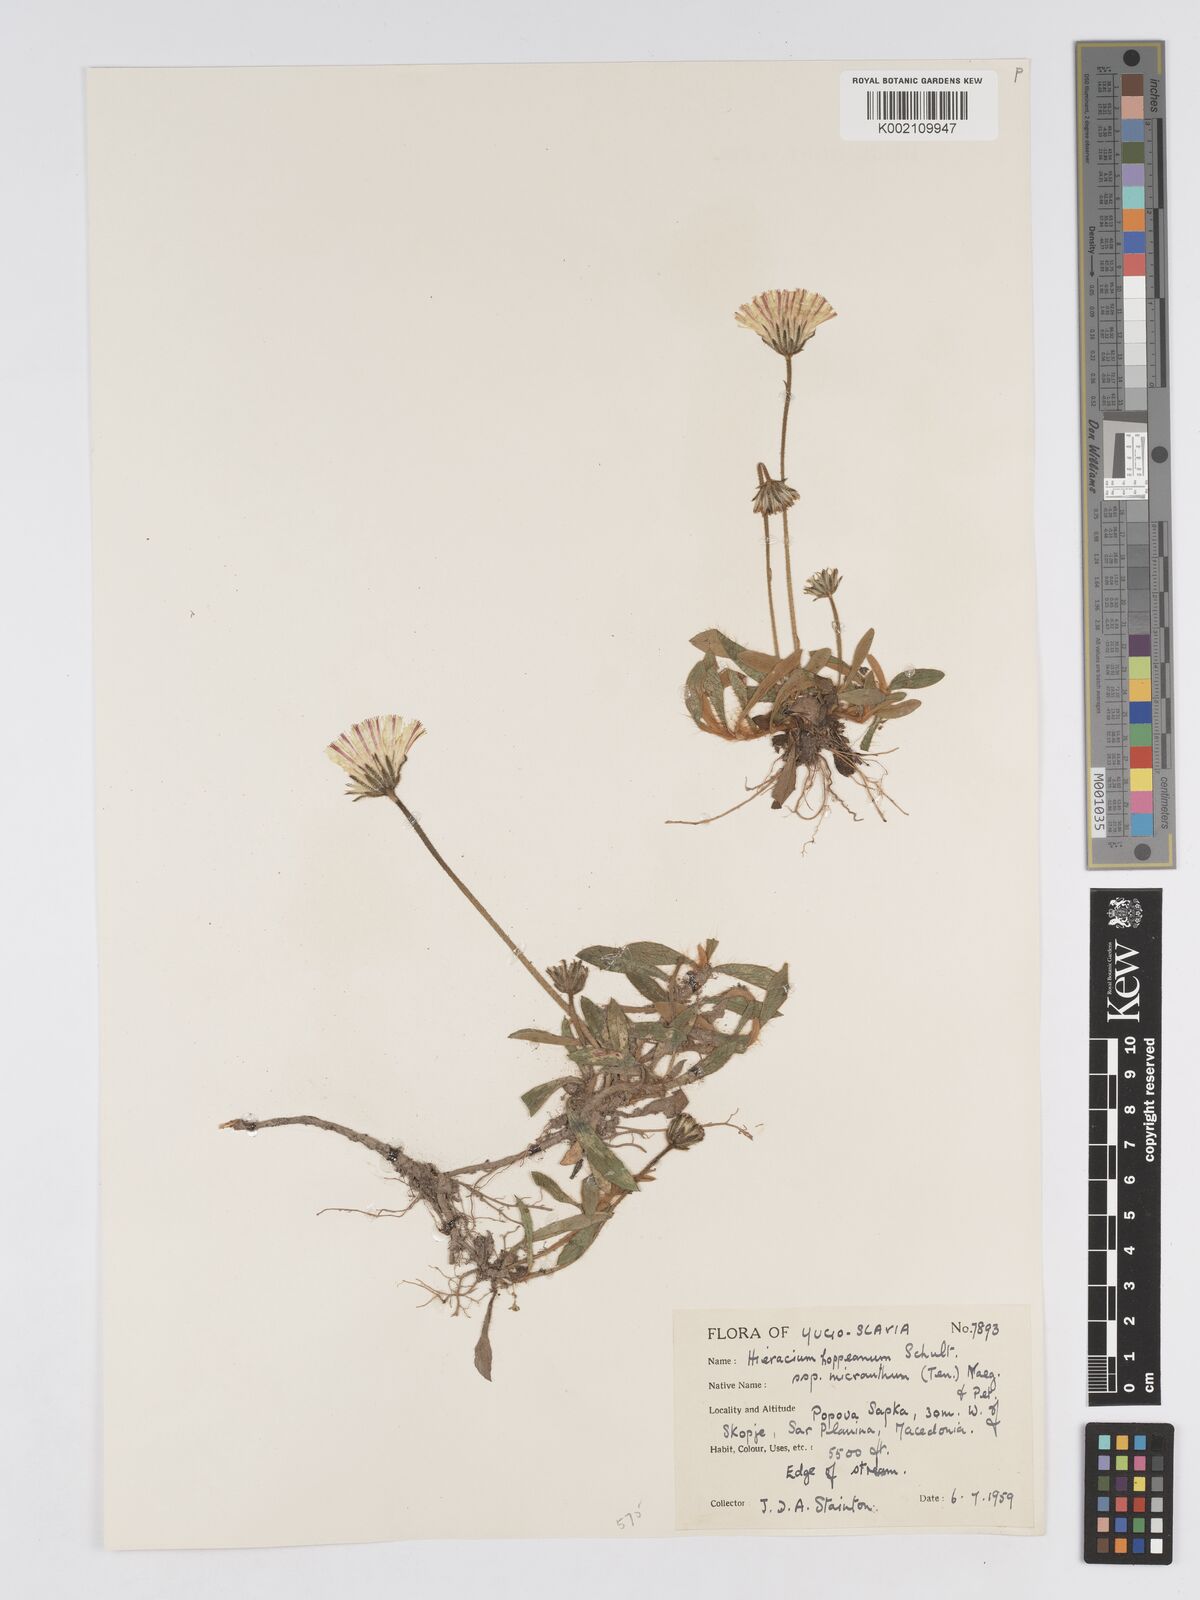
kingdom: Plantae
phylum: Tracheophyta
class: Magnoliopsida
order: Asterales
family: Asteraceae
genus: Pilosella
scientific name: Pilosella hoppeana
